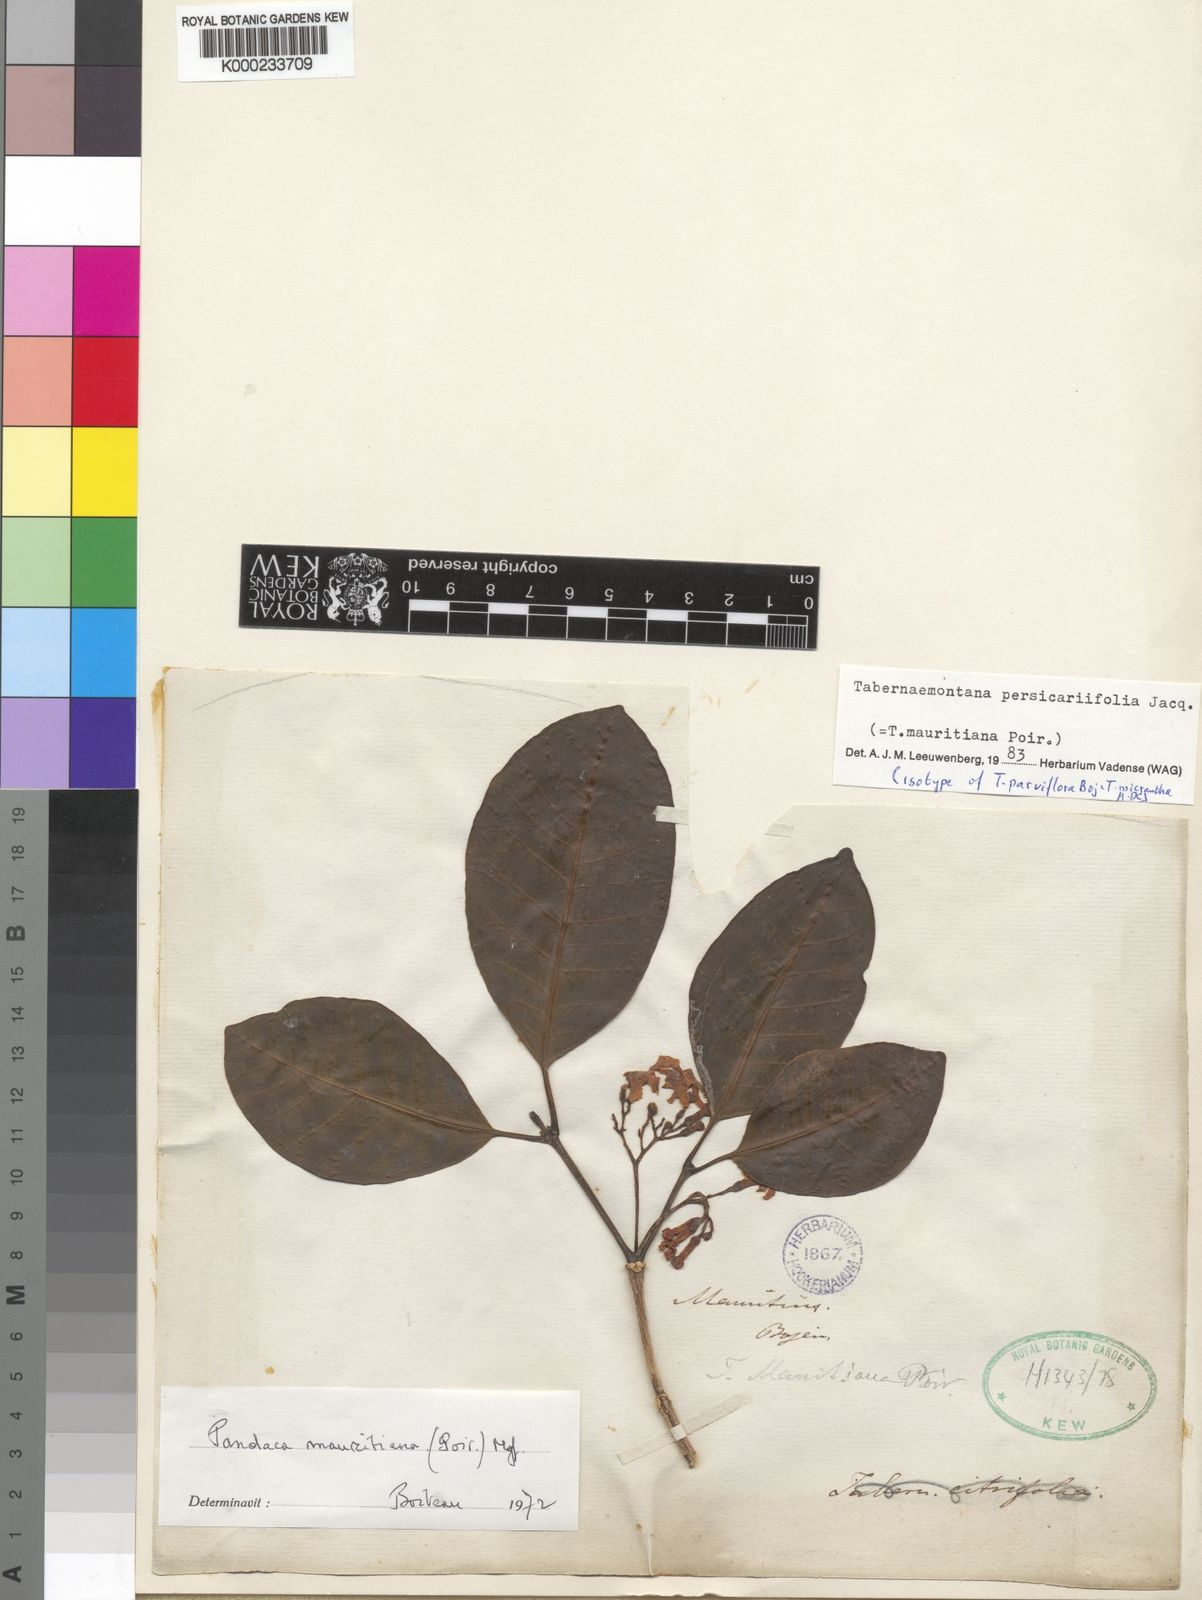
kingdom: Plantae
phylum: Tracheophyta
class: Magnoliopsida
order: Gentianales
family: Apocynaceae
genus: Tabernaemontana
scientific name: Tabernaemontana
